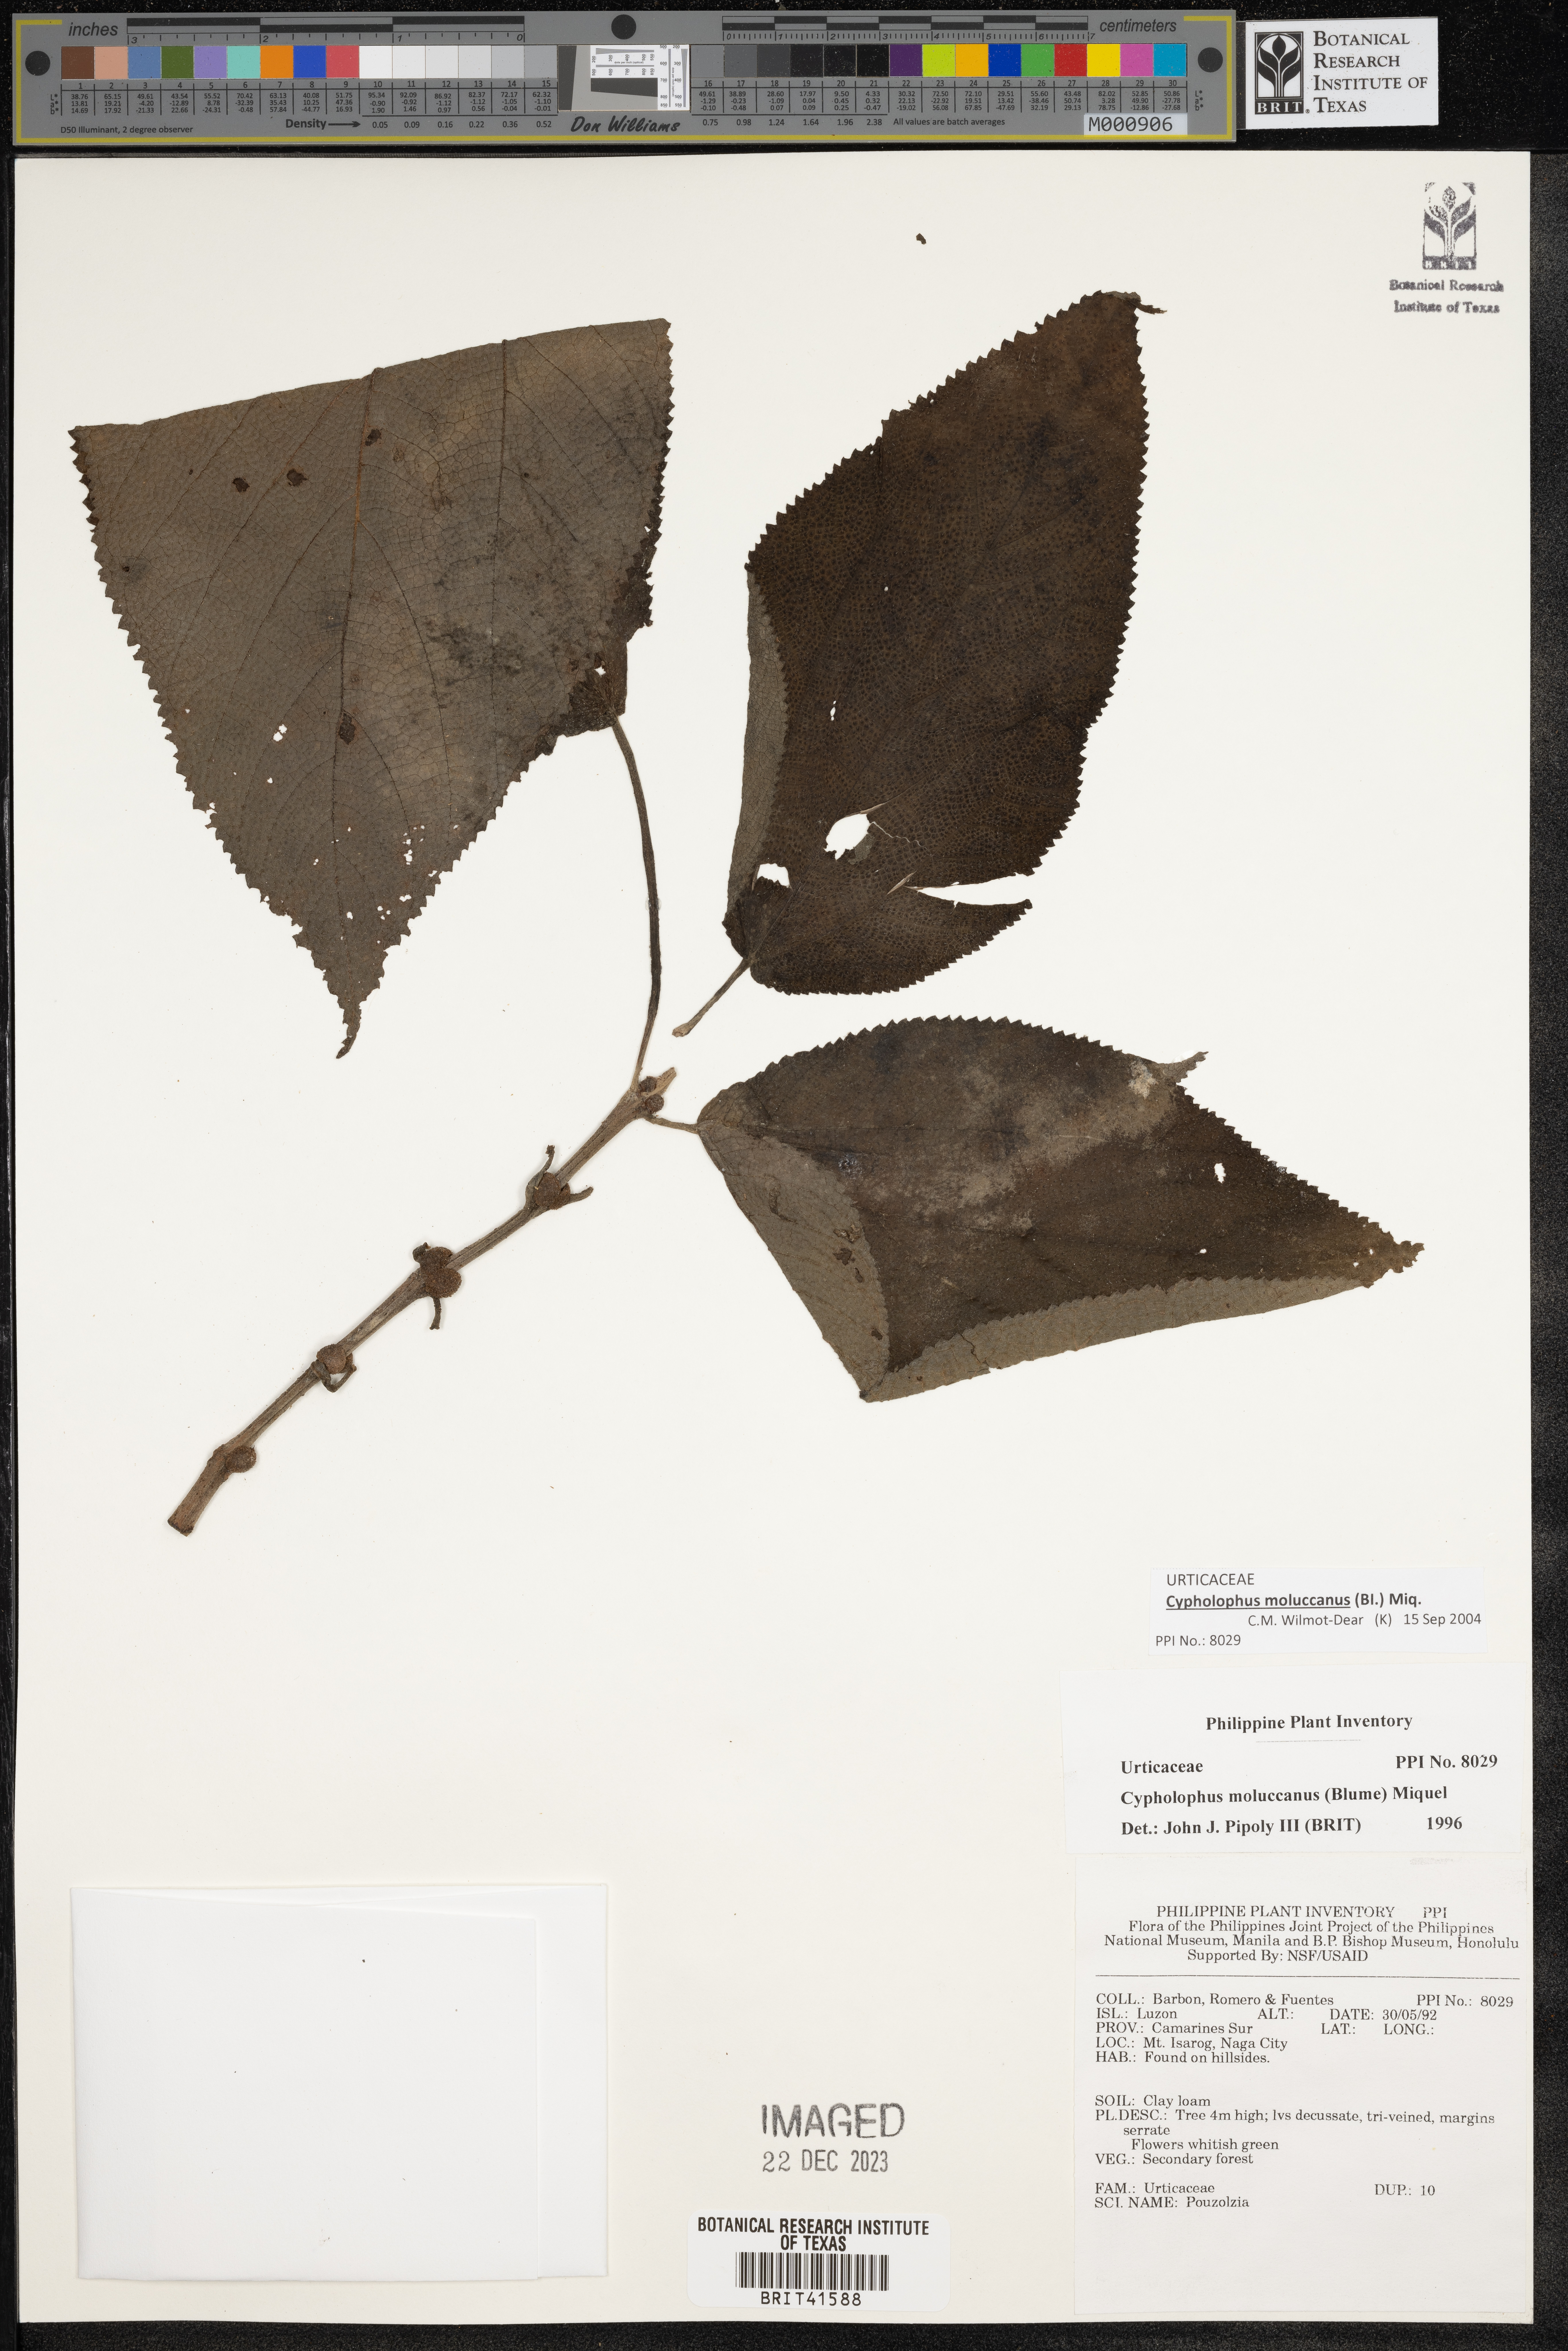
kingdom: Plantae
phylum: Tracheophyta
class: Magnoliopsida
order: Rosales
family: Urticaceae
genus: Cypholophus
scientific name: Cypholophus moluccanus
